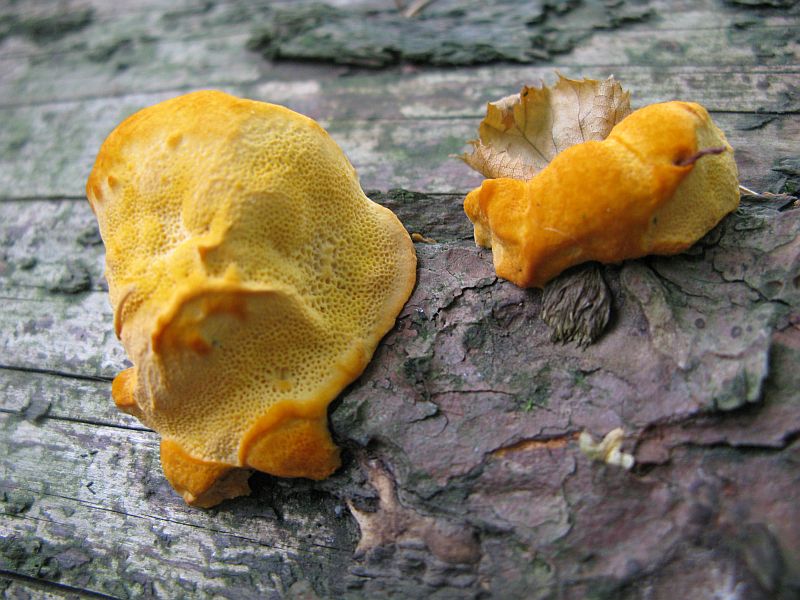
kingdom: Fungi
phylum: Basidiomycota
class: Agaricomycetes
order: Polyporales
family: Pycnoporellaceae
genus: Pycnoporellus
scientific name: Pycnoporellus fulgens
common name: flammeporesvamp
